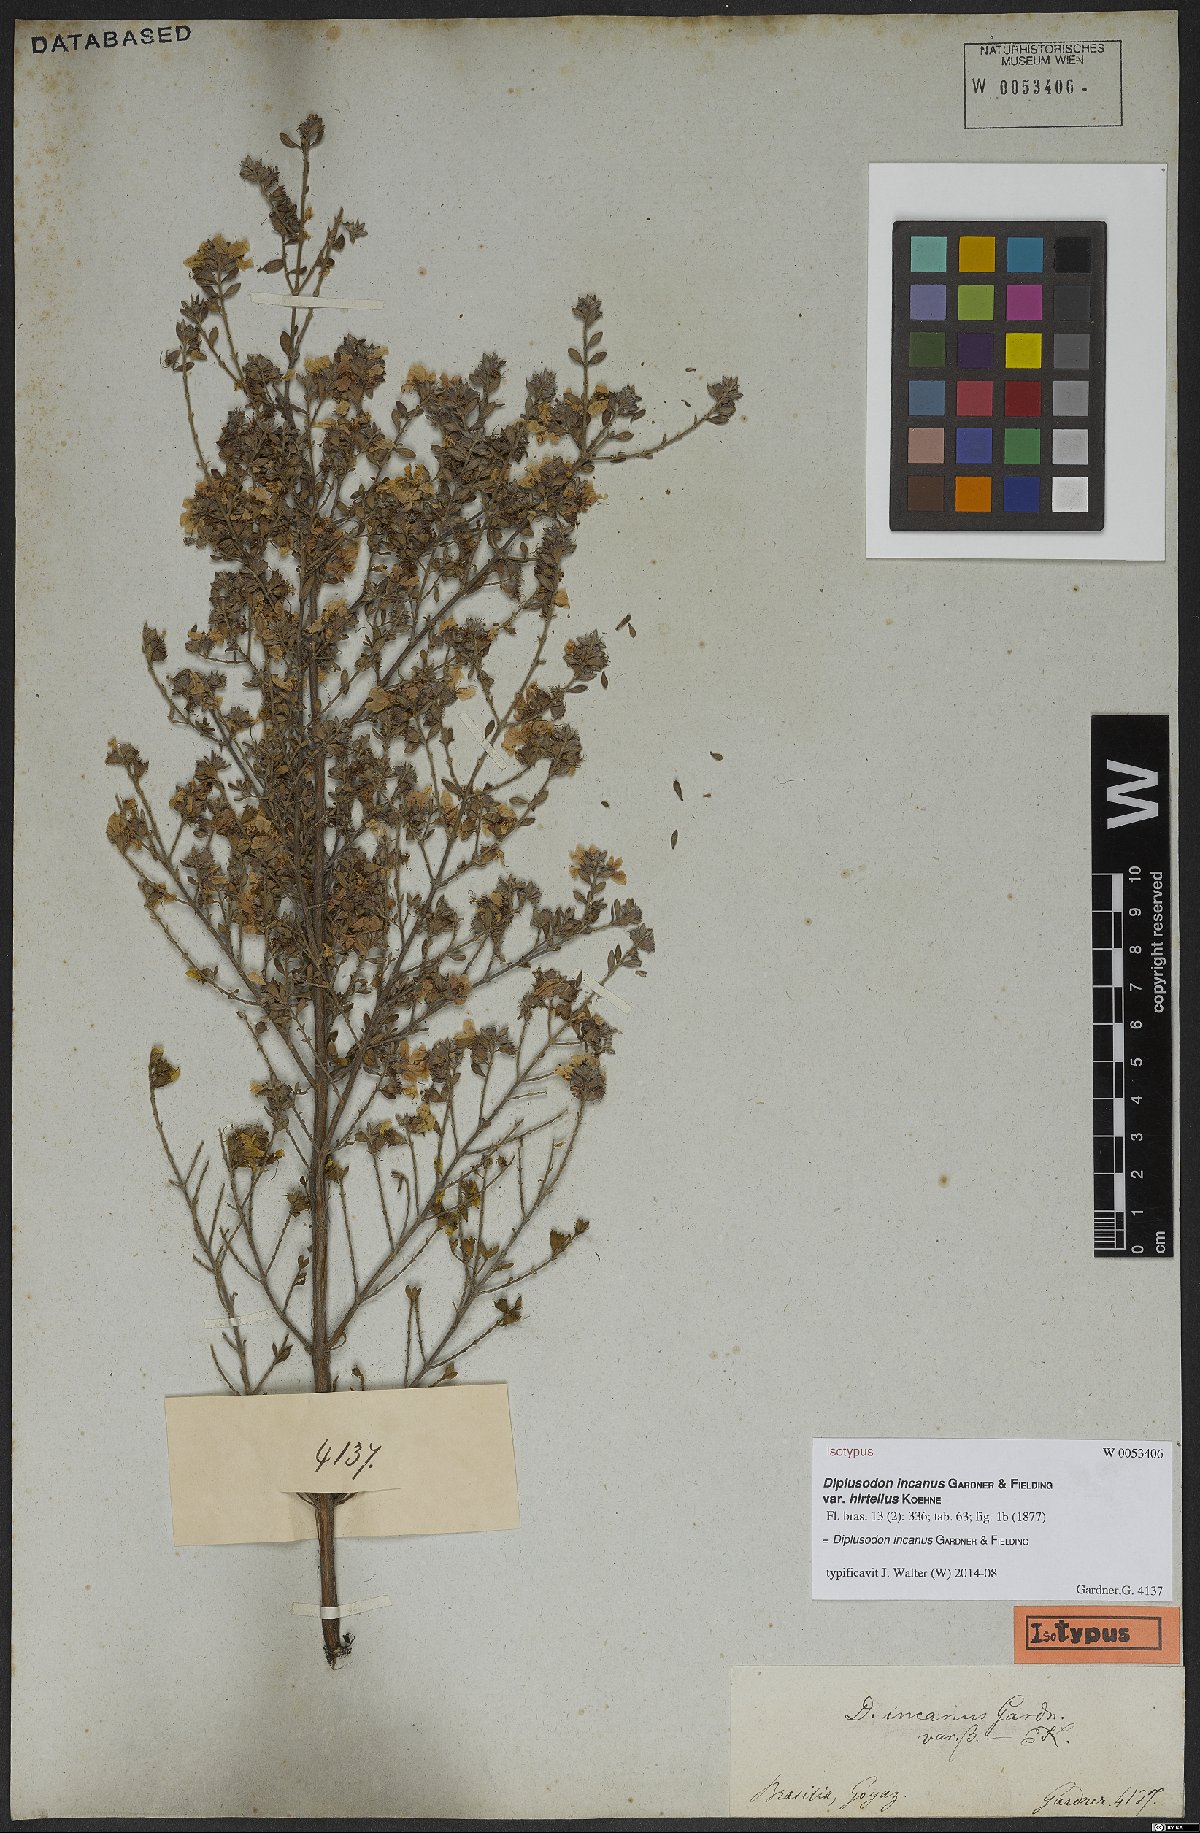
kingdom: Plantae
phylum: Tracheophyta
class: Magnoliopsida
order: Myrtales
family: Lythraceae
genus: Diplusodon
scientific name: Diplusodon incanus
